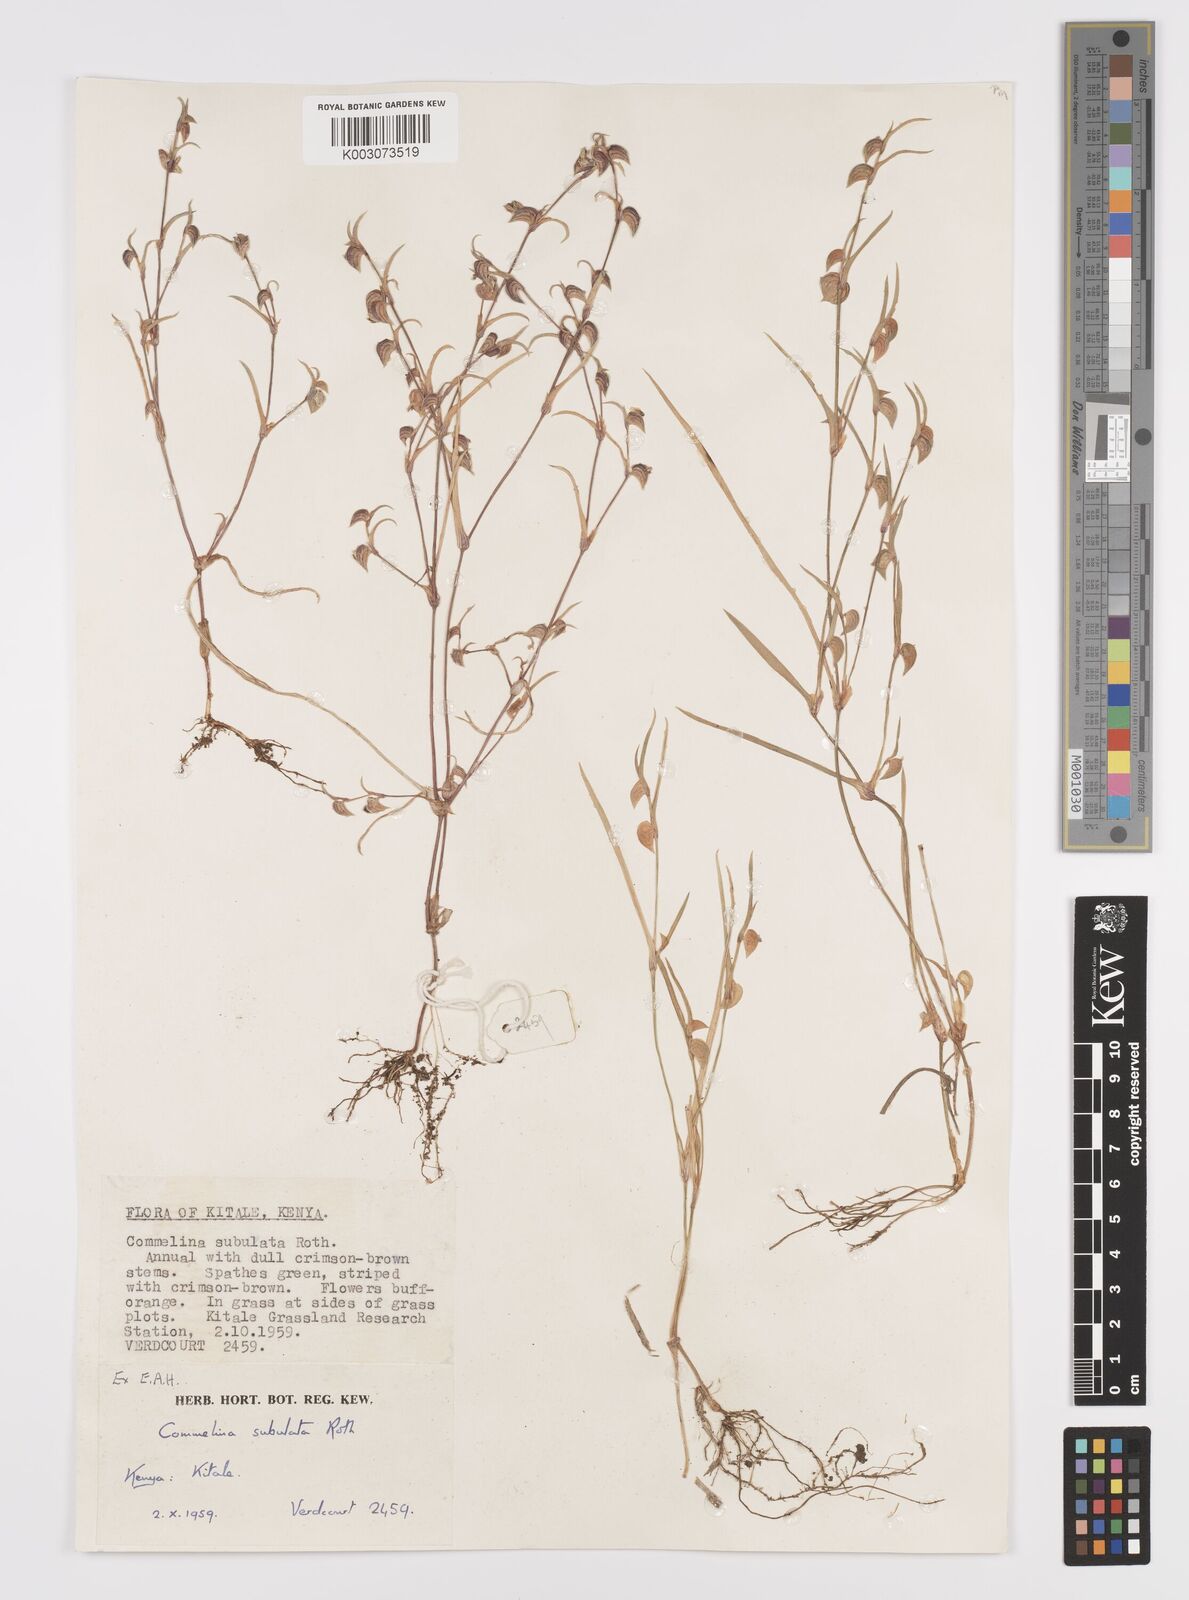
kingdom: Plantae
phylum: Tracheophyta
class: Liliopsida
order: Commelinales
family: Commelinaceae
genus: Commelina
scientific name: Commelina subulata
